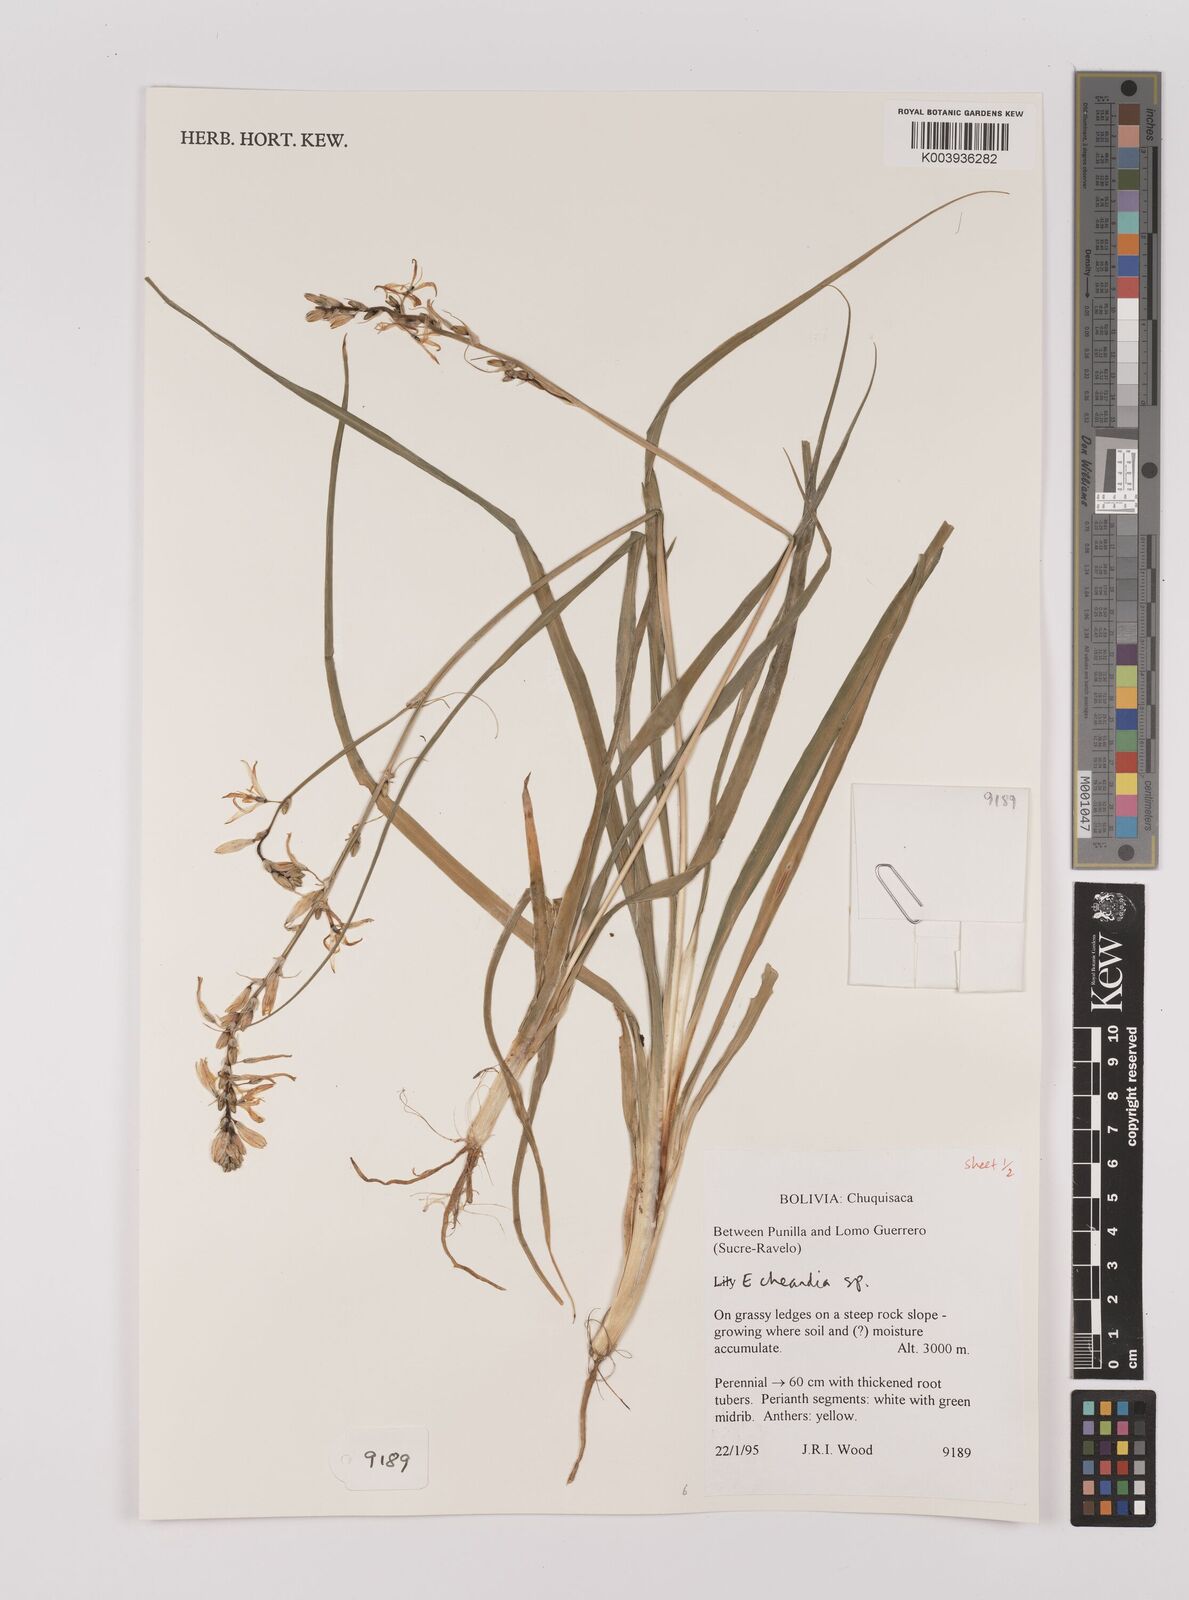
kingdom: Plantae
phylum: Tracheophyta
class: Liliopsida
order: Asparagales
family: Asparagaceae
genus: Echeandia
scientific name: Echeandia
